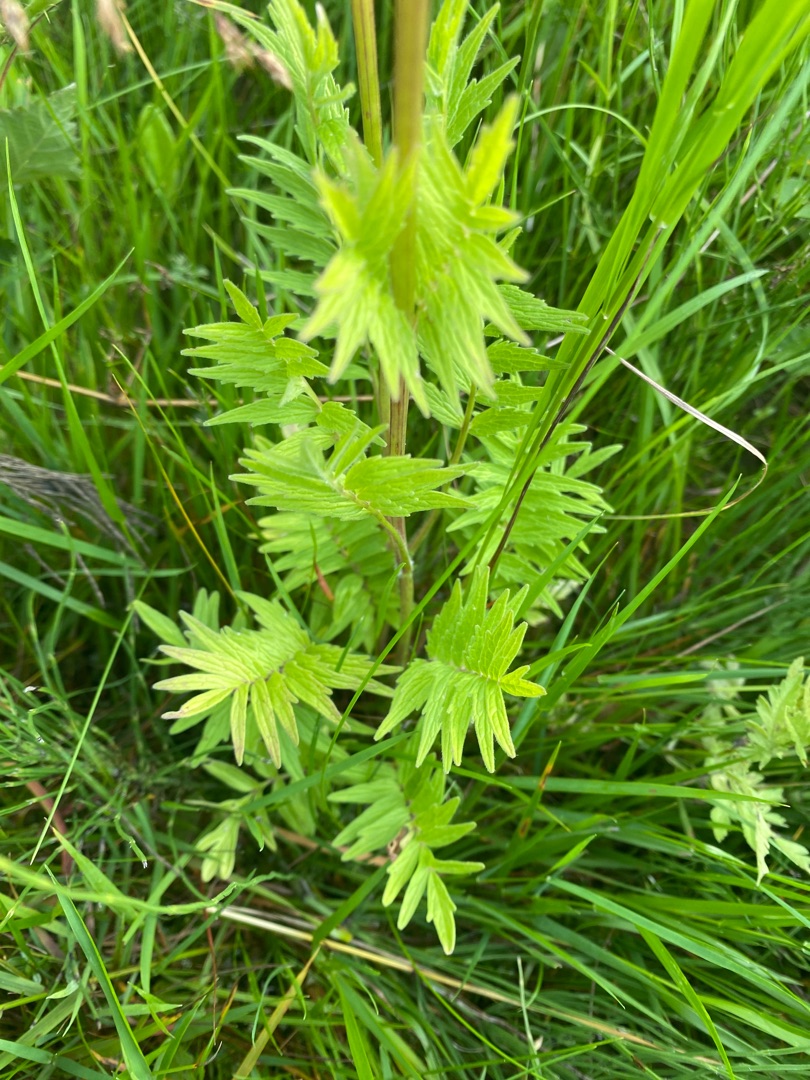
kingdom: Plantae
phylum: Tracheophyta
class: Magnoliopsida
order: Dipsacales
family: Caprifoliaceae
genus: Valeriana
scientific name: Valeriana officinalis
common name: Læge-baldrian
